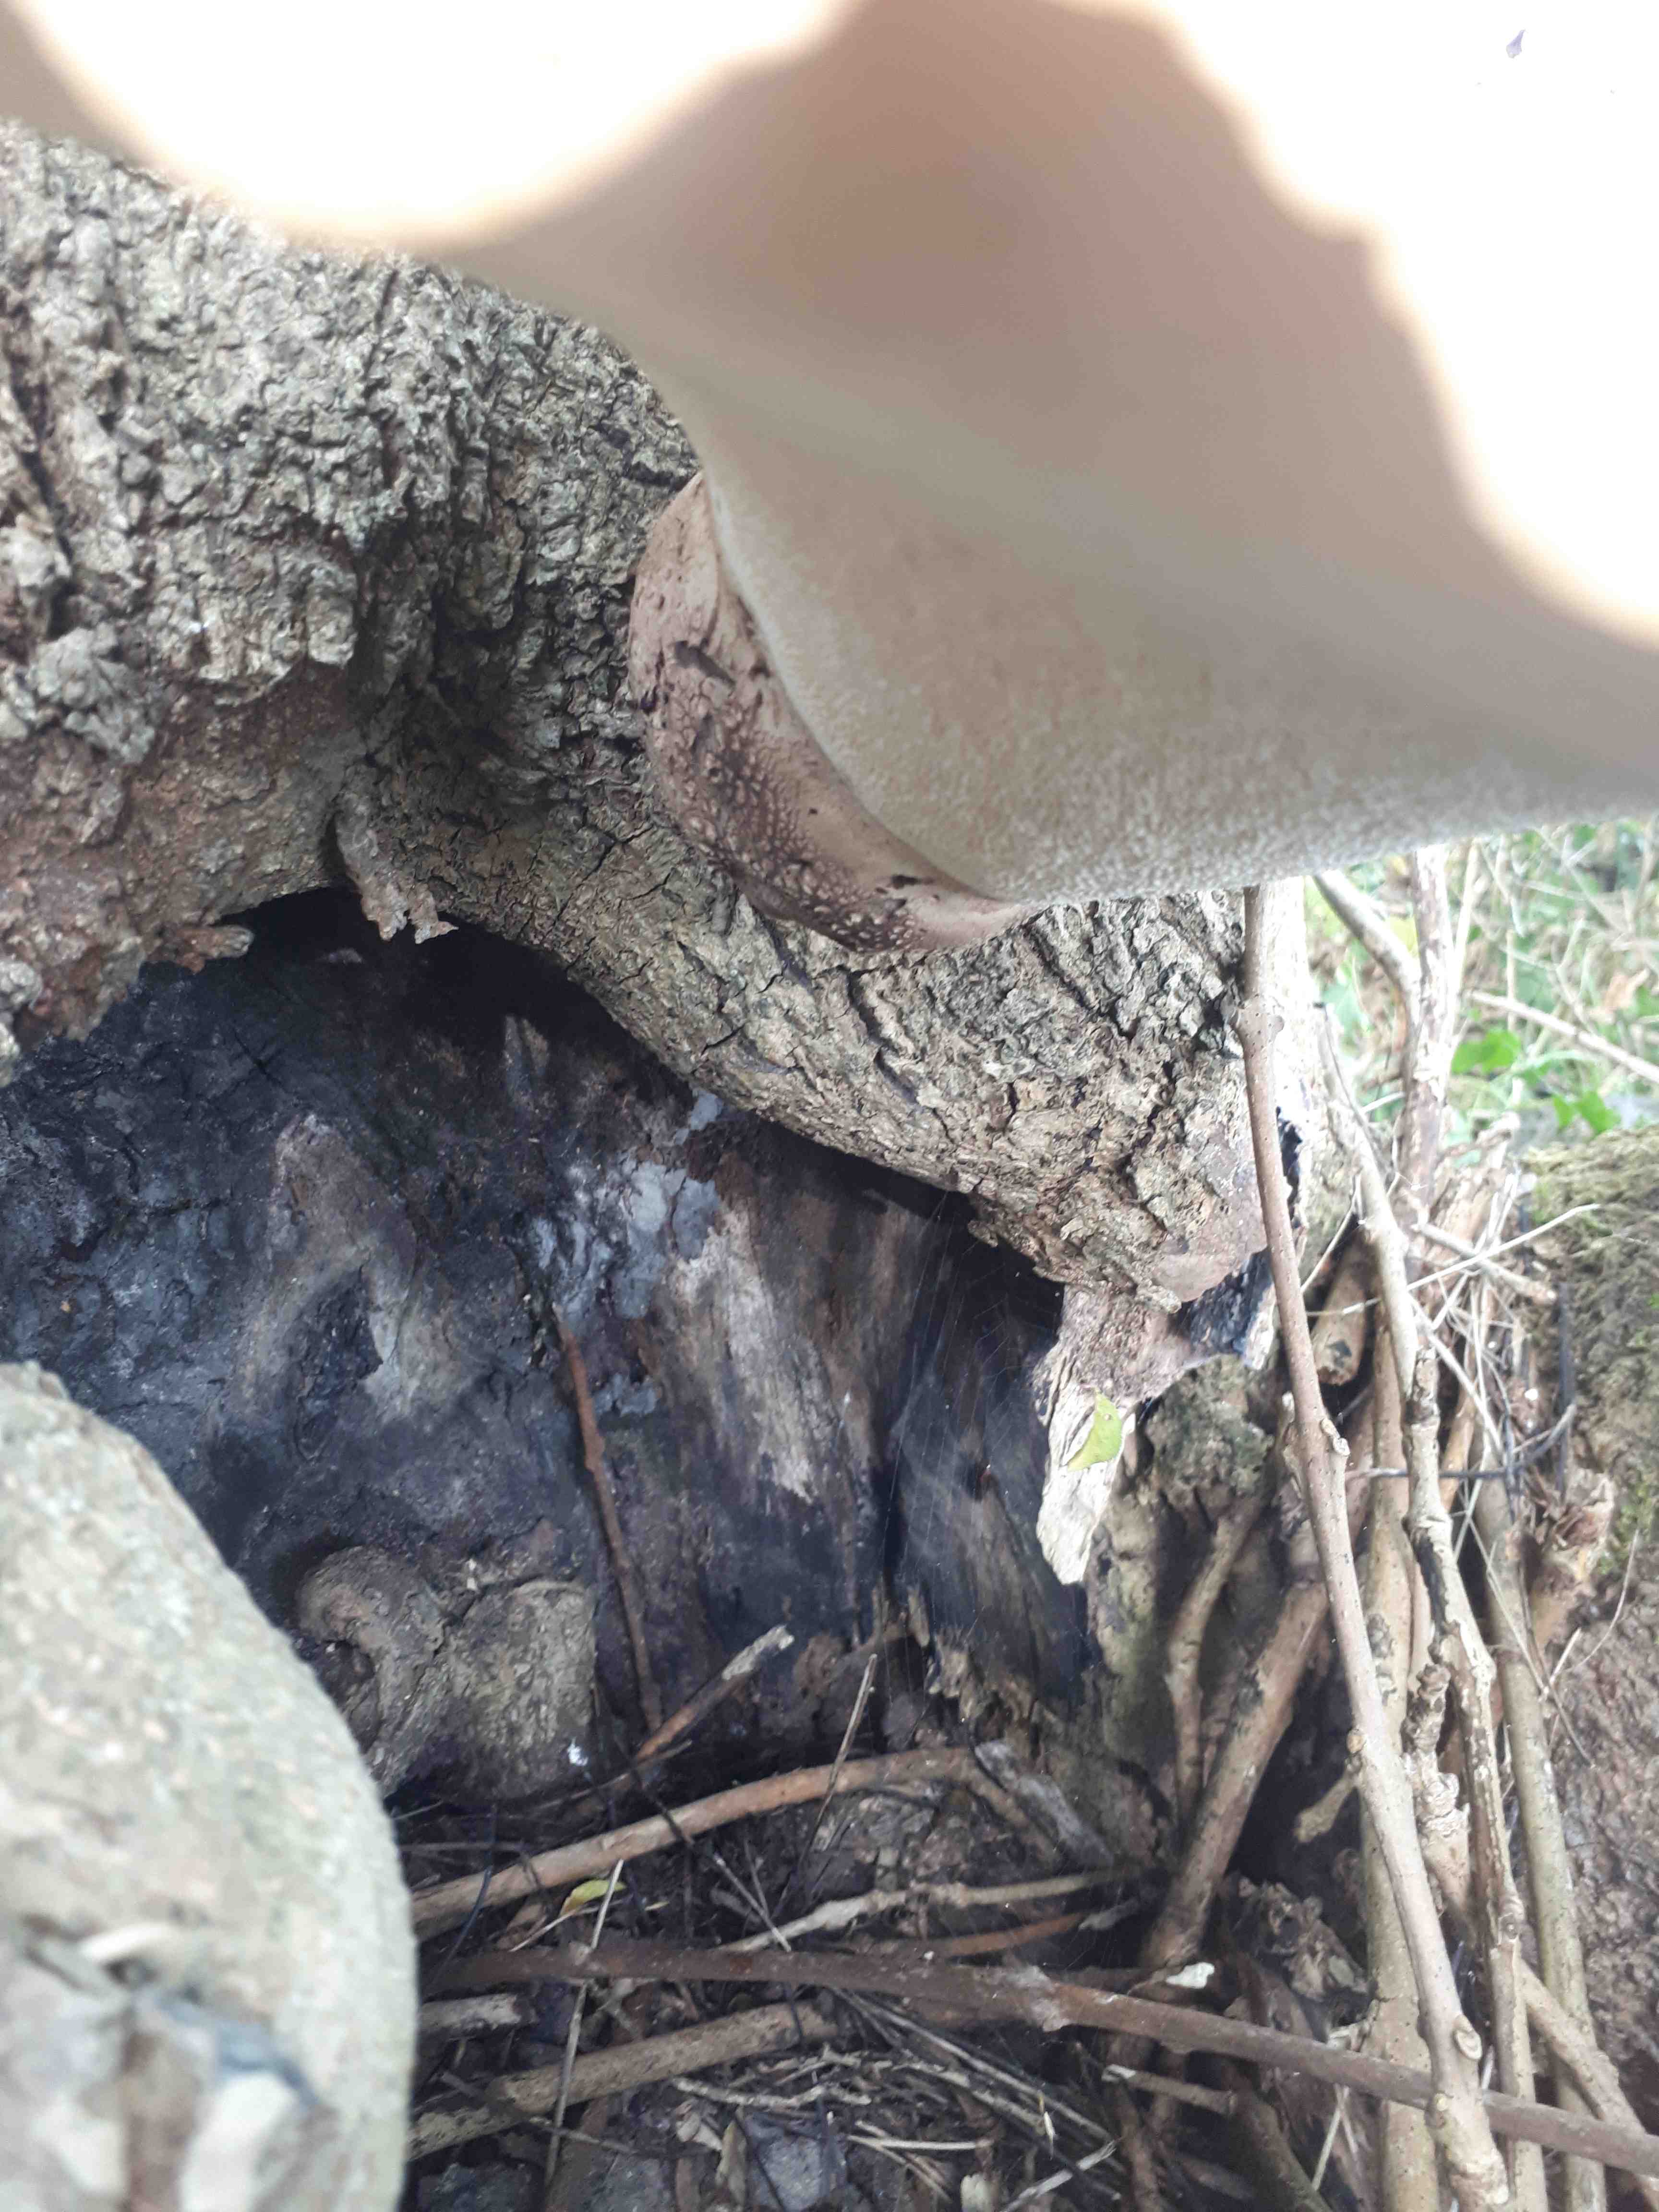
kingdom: Fungi
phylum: Basidiomycota
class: Agaricomycetes
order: Polyporales
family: Polyporaceae
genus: Cerioporus
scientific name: Cerioporus squamosus
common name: skællet stilkporesvamp
